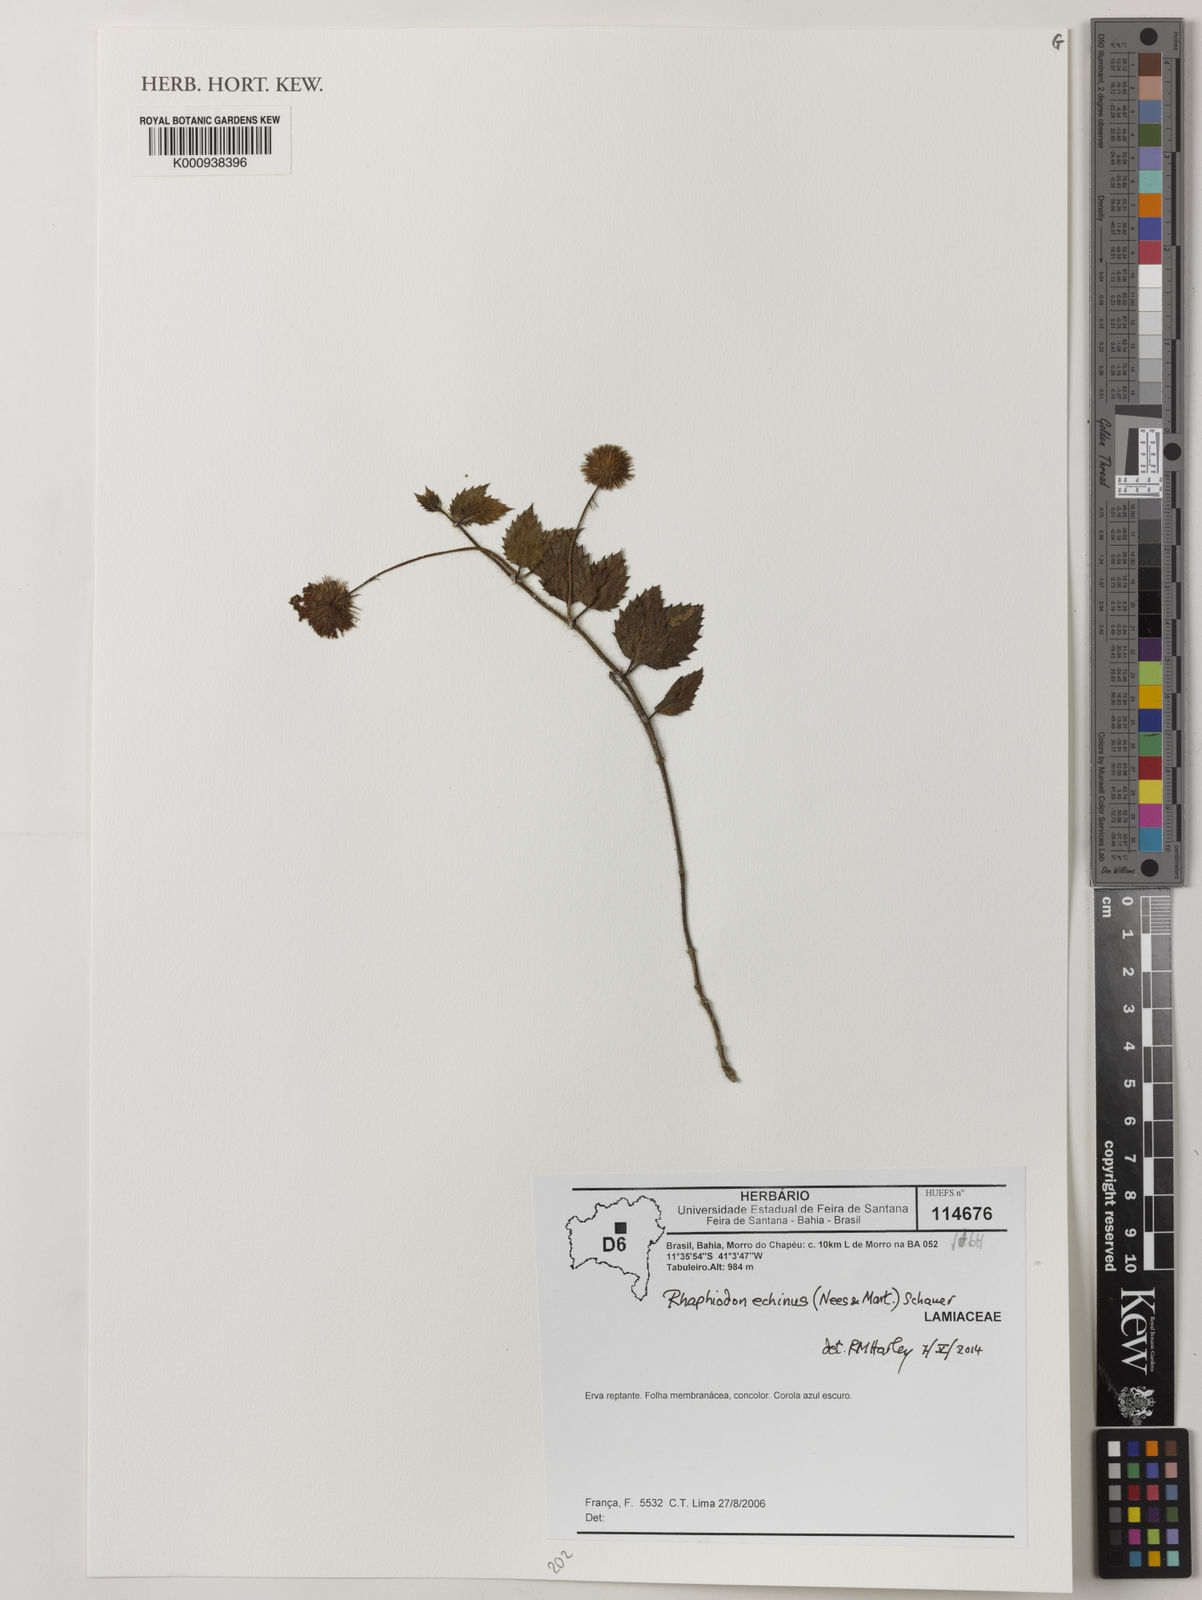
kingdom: Plantae
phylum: Tracheophyta
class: Magnoliopsida
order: Lamiales
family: Lamiaceae
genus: Rhaphiodon
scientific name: Rhaphiodon echinus
